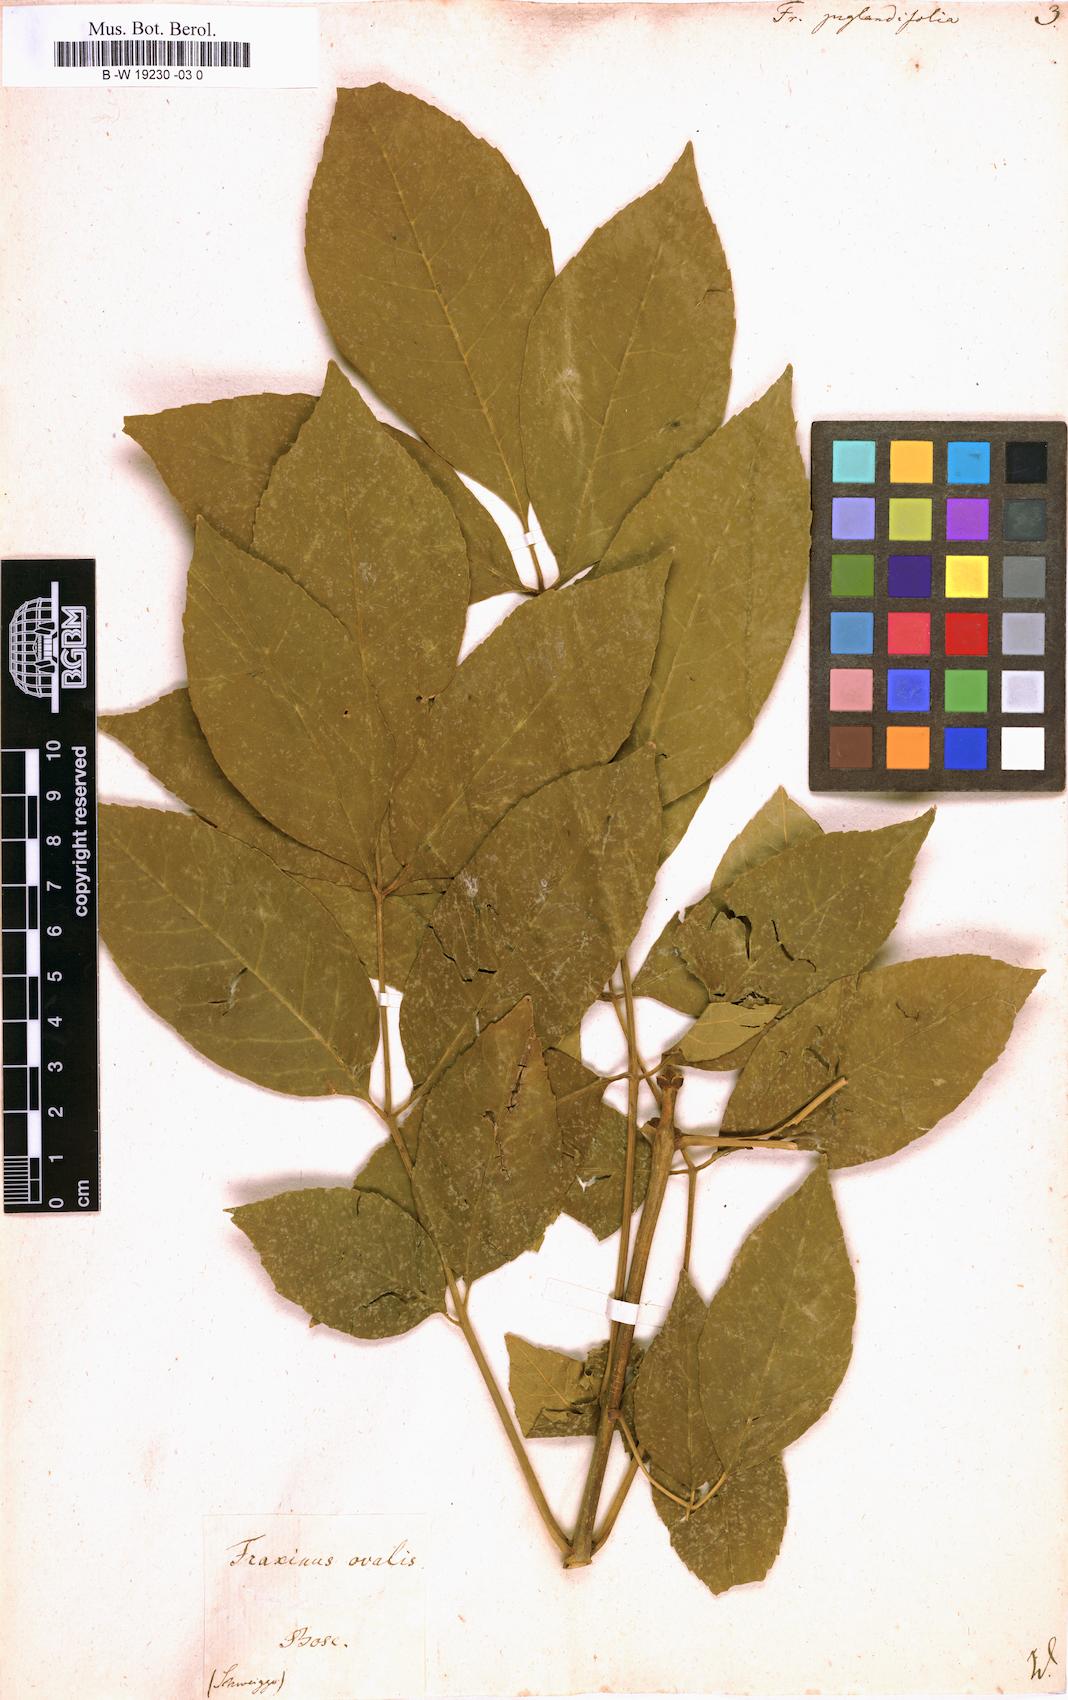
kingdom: Plantae
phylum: Tracheophyta
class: Magnoliopsida
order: Lamiales
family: Oleaceae
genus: Fraxinus
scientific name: Fraxinus americana
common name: White ash
